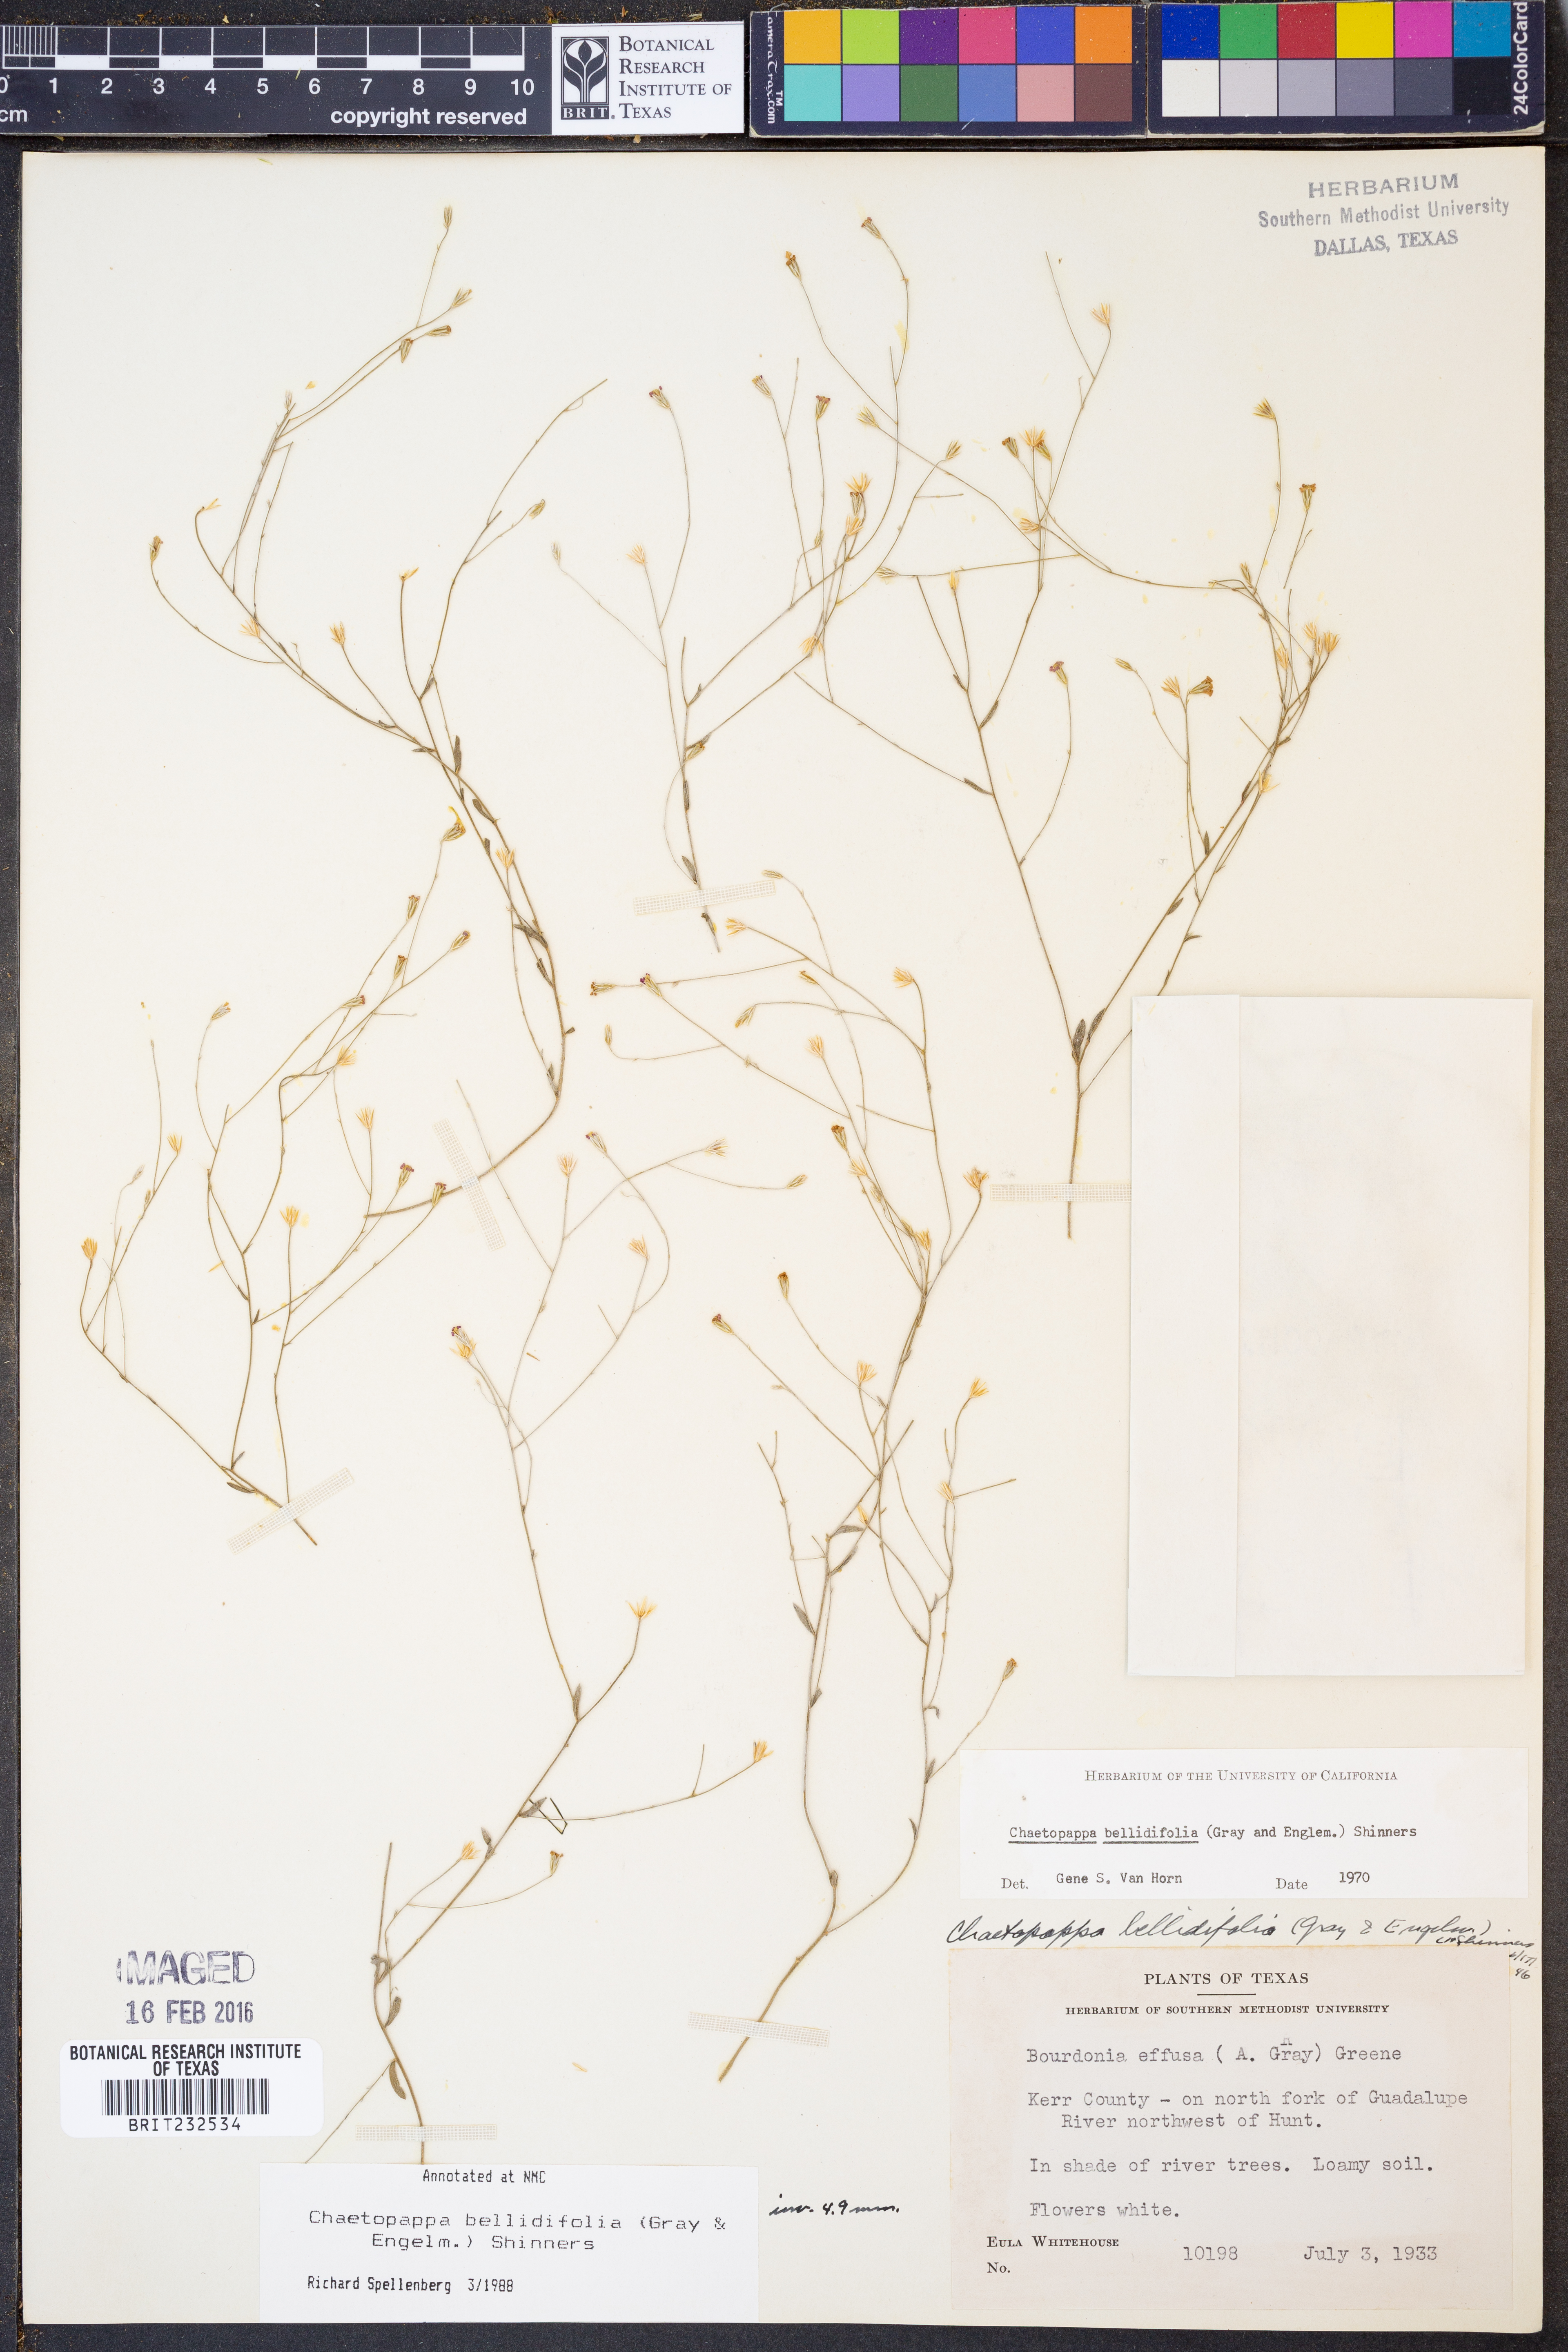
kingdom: Plantae
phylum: Tracheophyta
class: Magnoliopsida
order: Asterales
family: Asteraceae
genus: Chaetopappa
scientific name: Chaetopappa bellidifolia
